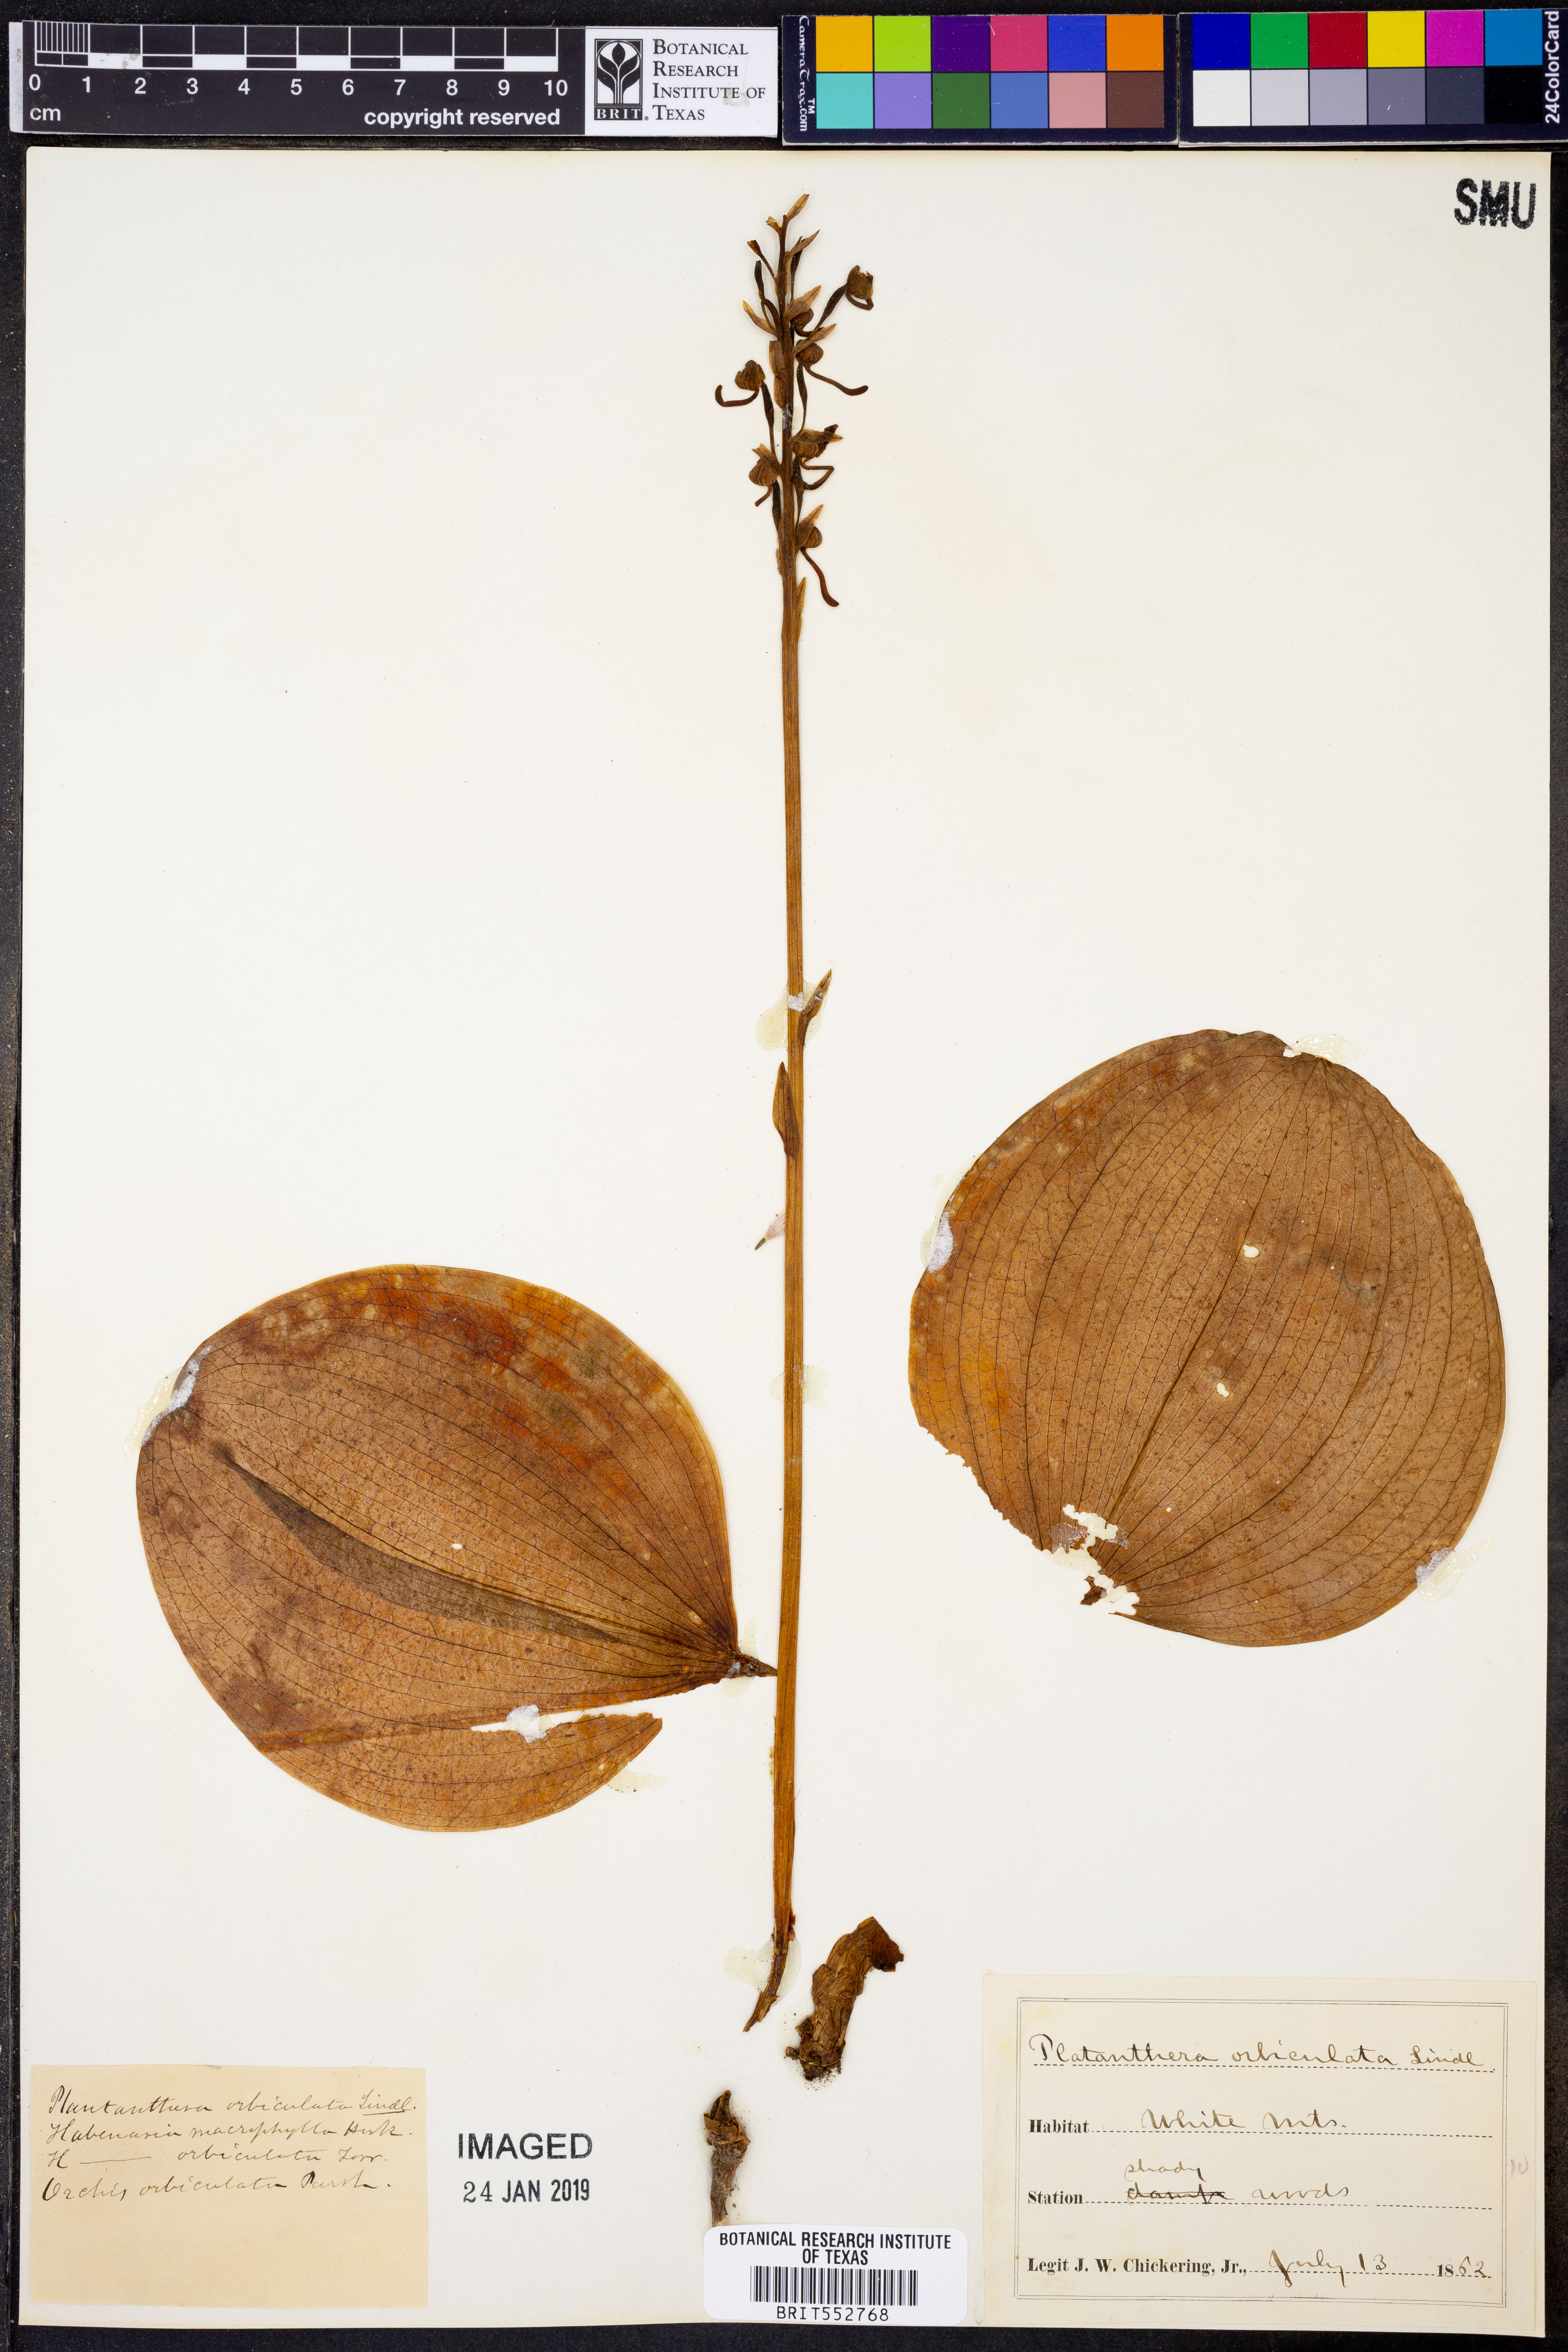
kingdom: Plantae
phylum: Tracheophyta
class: Liliopsida
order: Asparagales
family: Orchidaceae
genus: Platanthera
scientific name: Platanthera orbiculata
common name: Large round-leaved orchid
